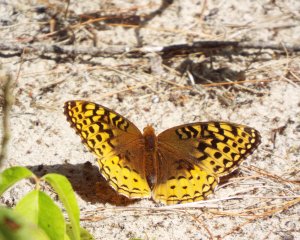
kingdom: Animalia
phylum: Arthropoda
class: Insecta
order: Lepidoptera
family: Nymphalidae
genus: Speyeria
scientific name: Speyeria cybele
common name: Great Spangled Fritillary
